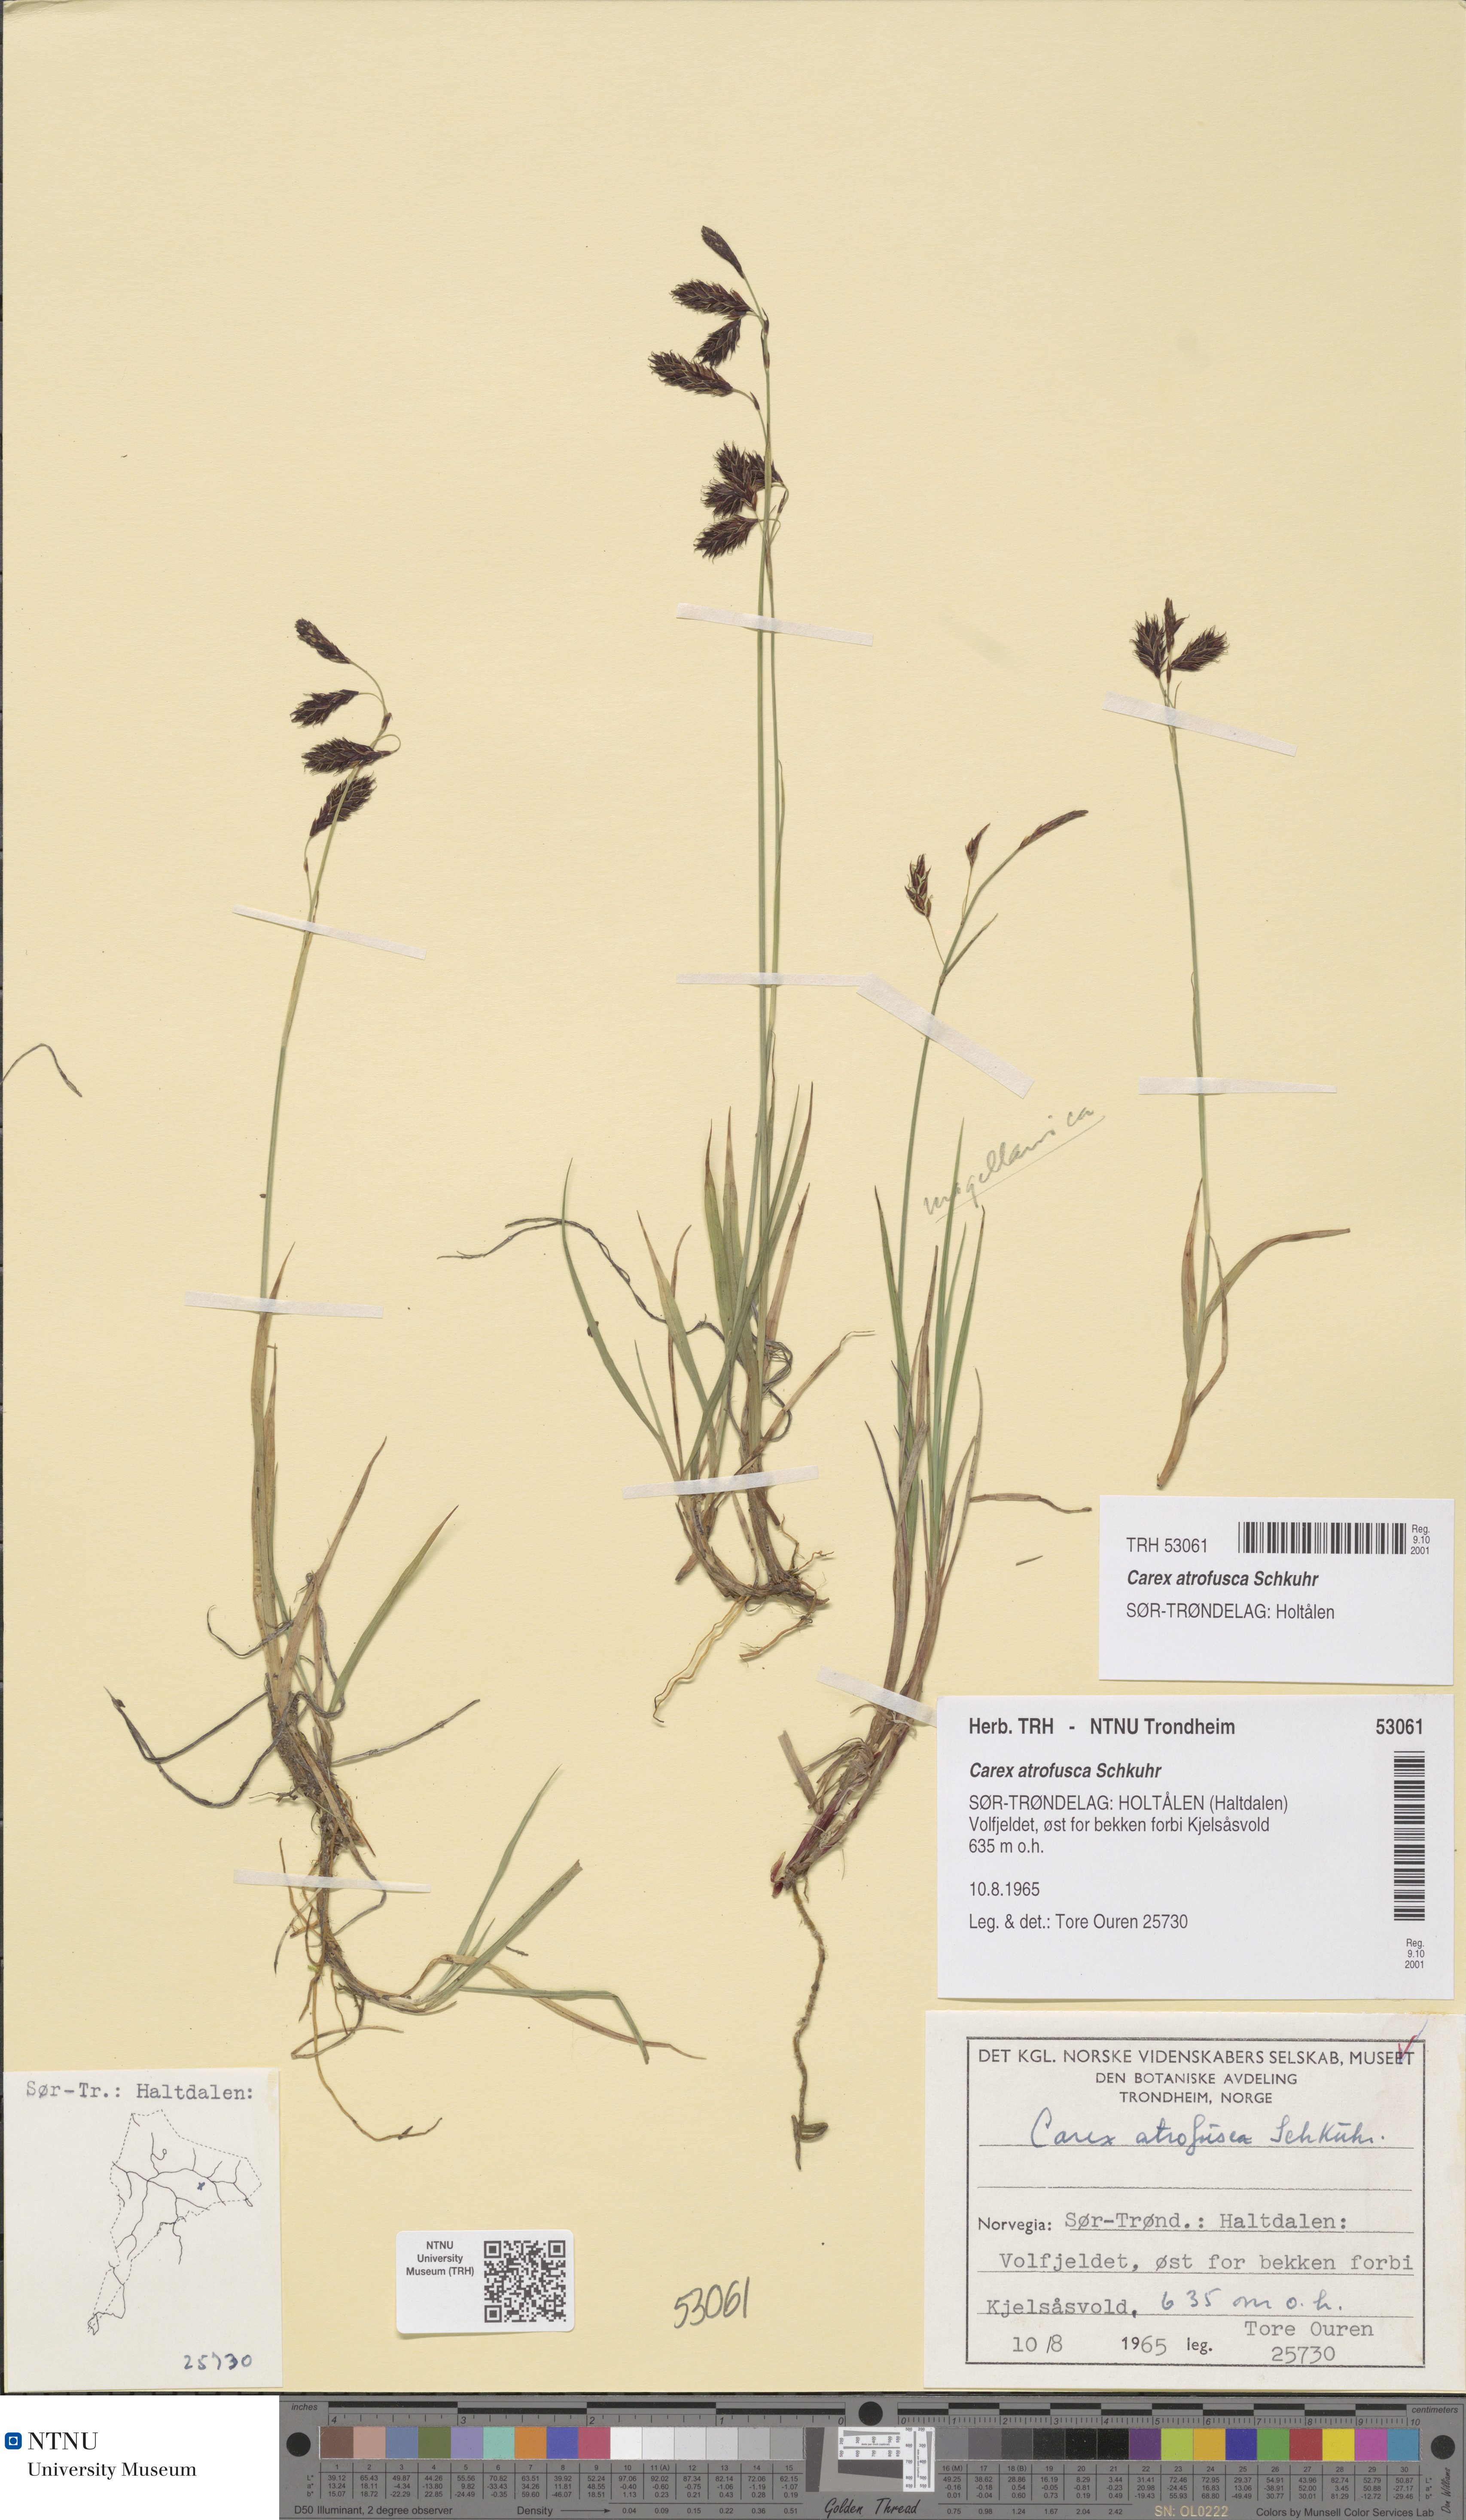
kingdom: Plantae
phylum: Tracheophyta
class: Liliopsida
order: Poales
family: Cyperaceae
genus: Carex
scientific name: Carex atrofusca
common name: Scorched alpine-sedge
